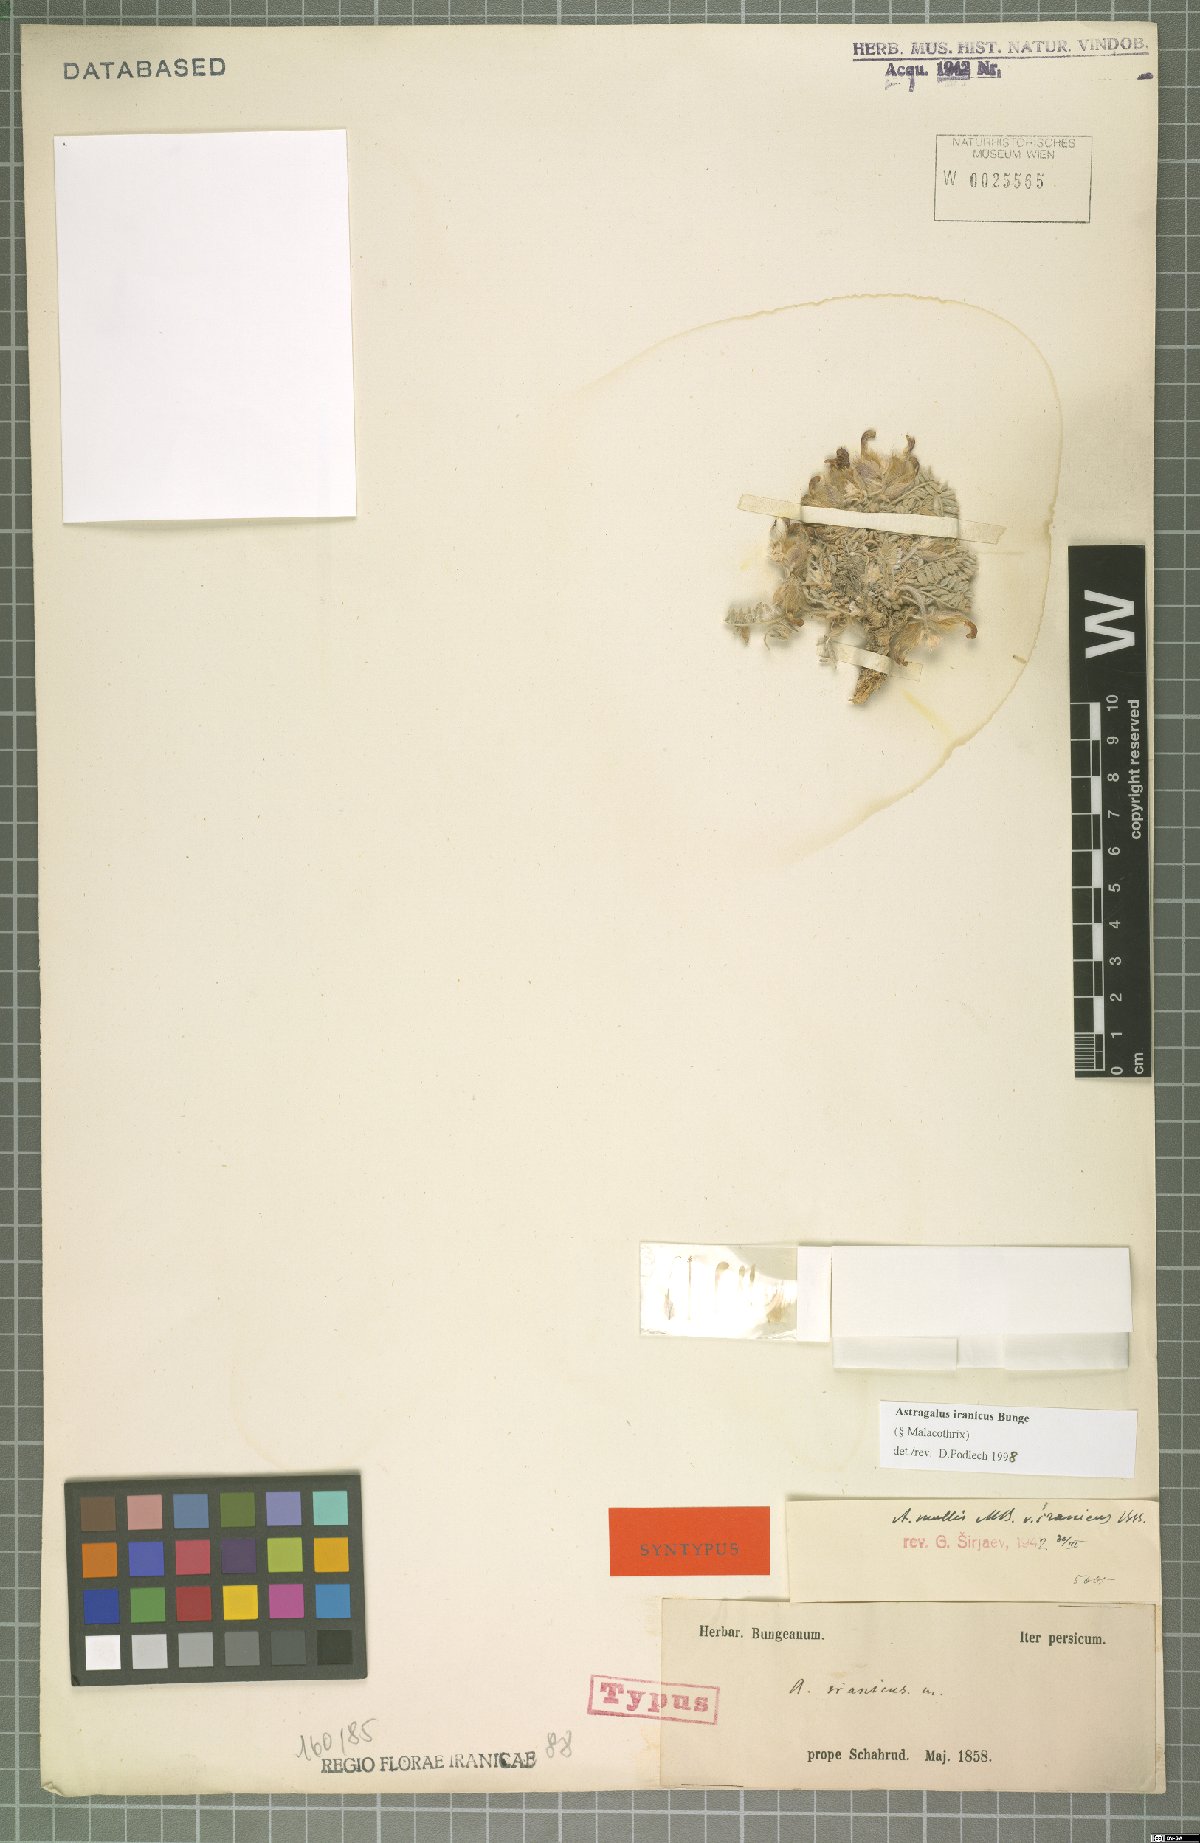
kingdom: Plantae
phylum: Tracheophyta
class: Magnoliopsida
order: Fabales
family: Fabaceae
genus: Astragalus
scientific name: Astragalus iranicus
